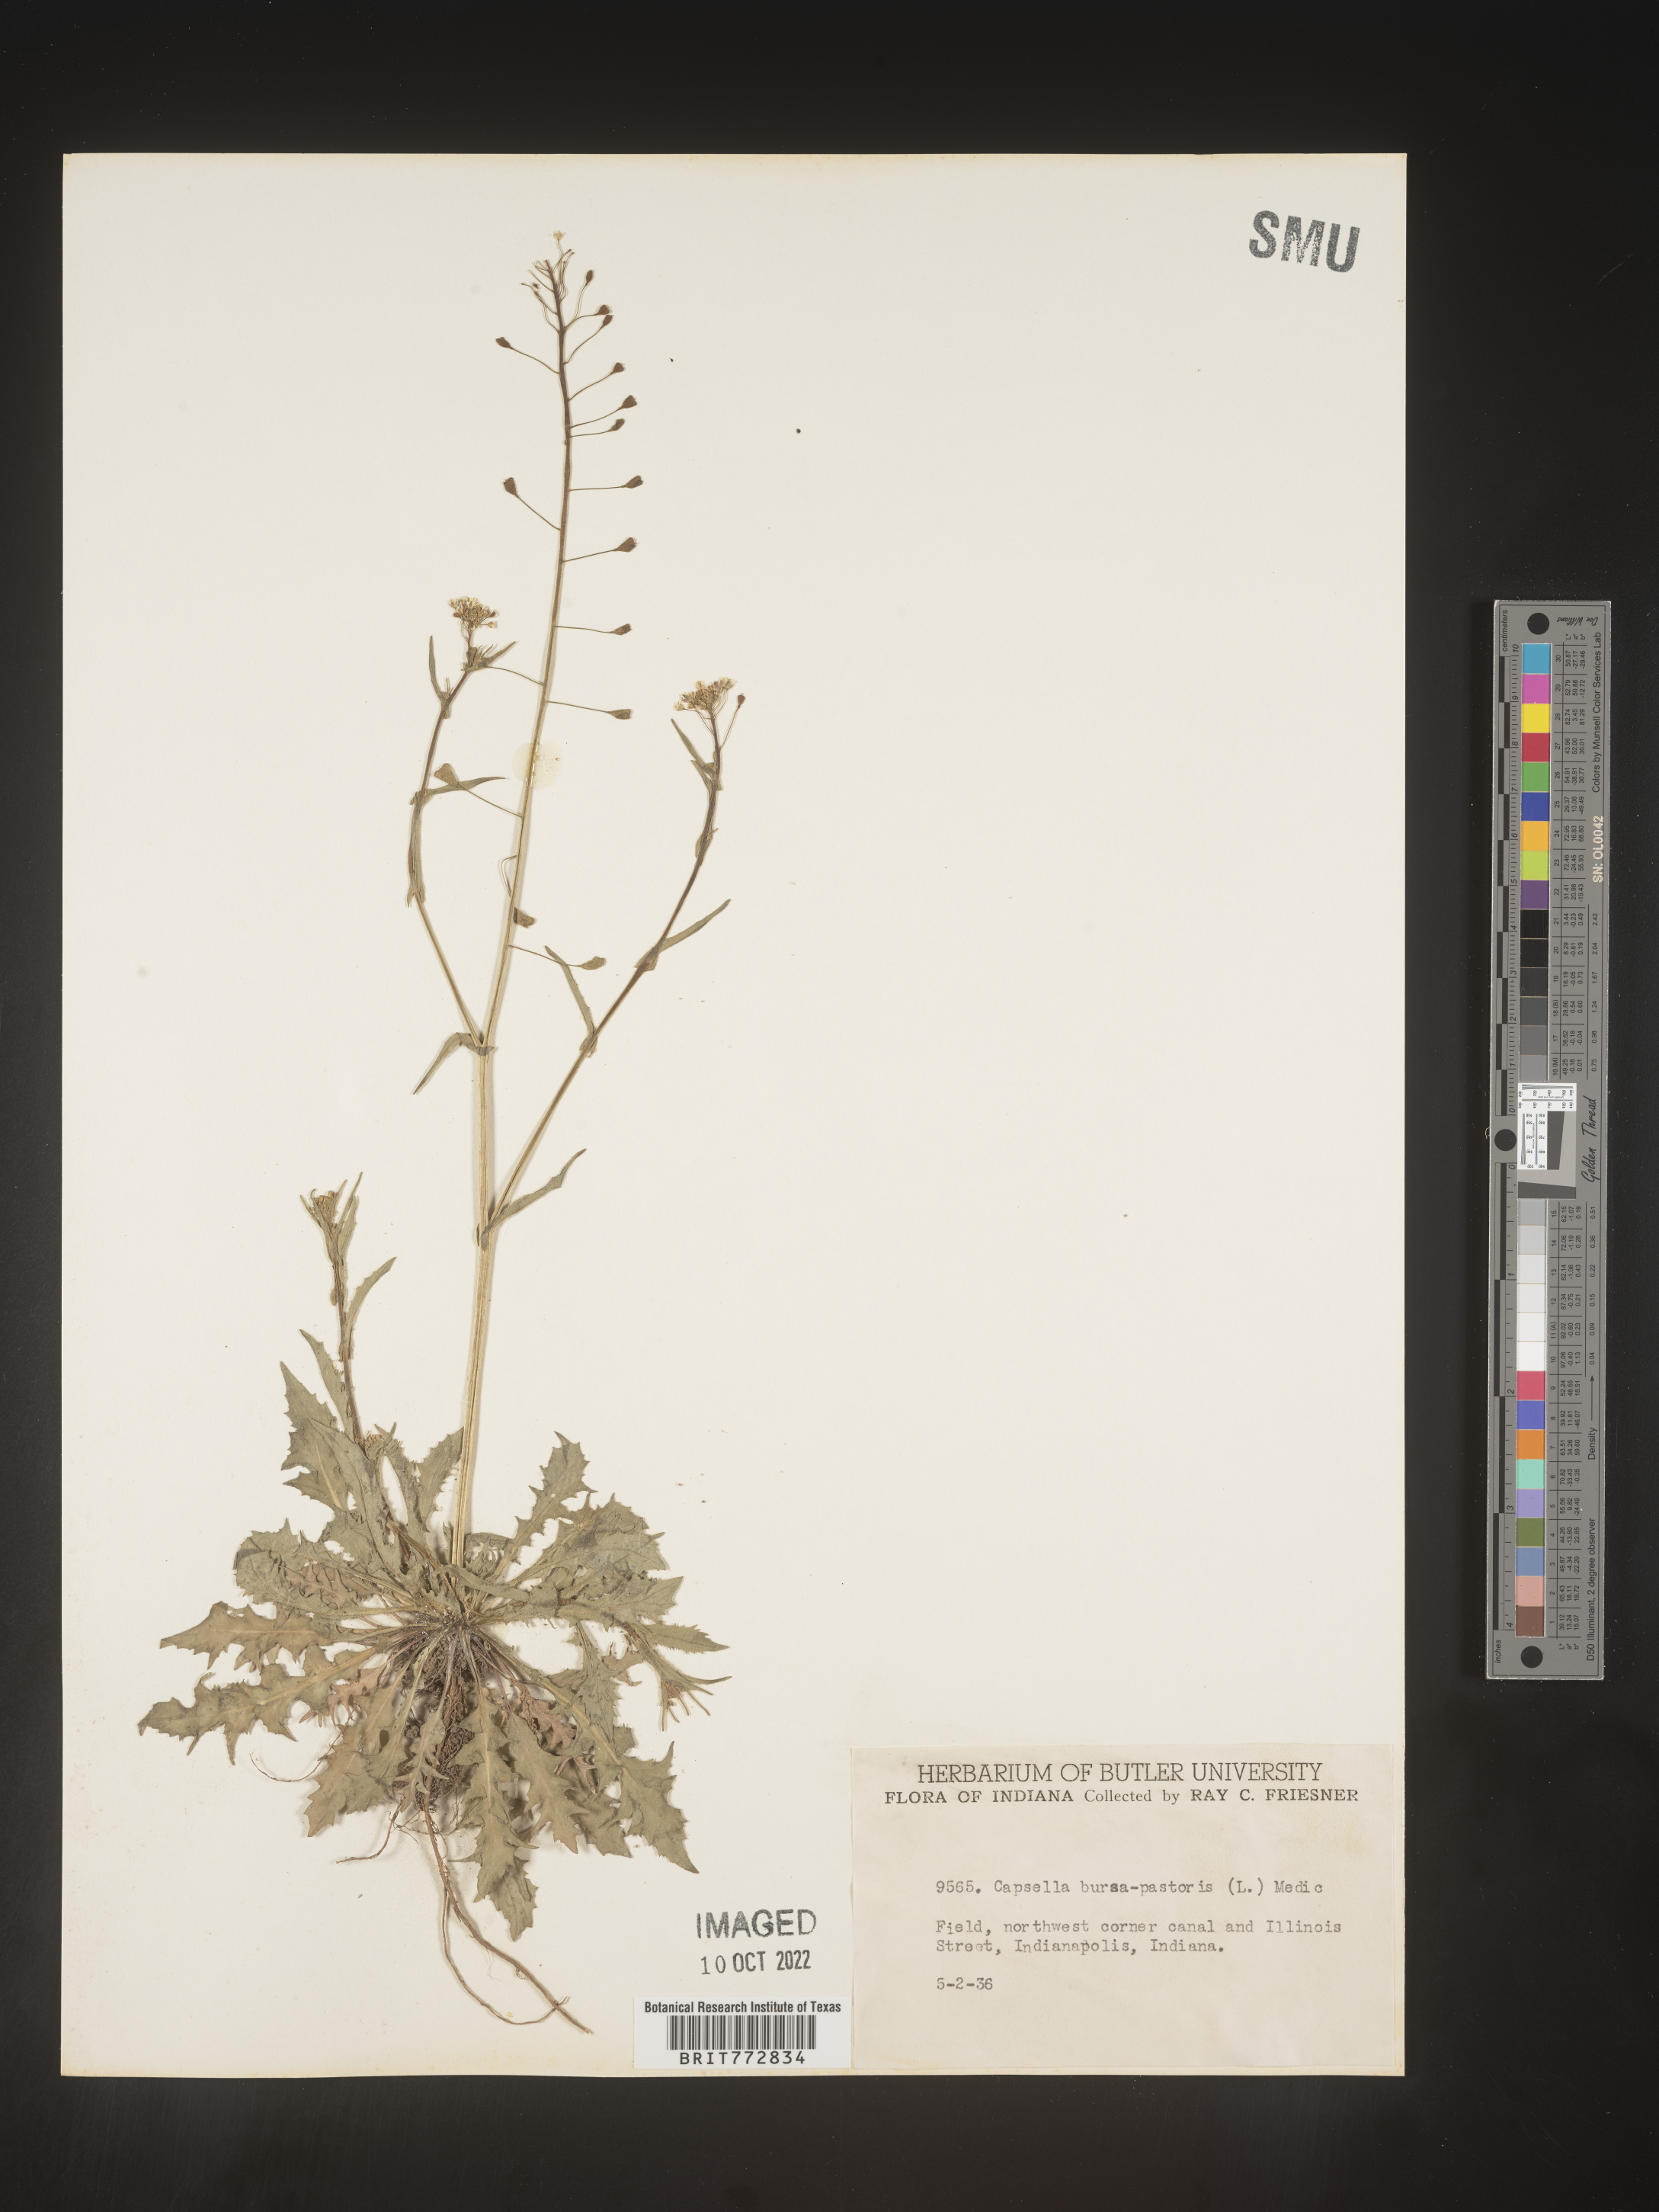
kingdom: Plantae
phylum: Tracheophyta
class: Magnoliopsida
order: Brassicales
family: Brassicaceae
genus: Capsella
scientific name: Capsella bursa-pastoris
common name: Shepherd's purse
